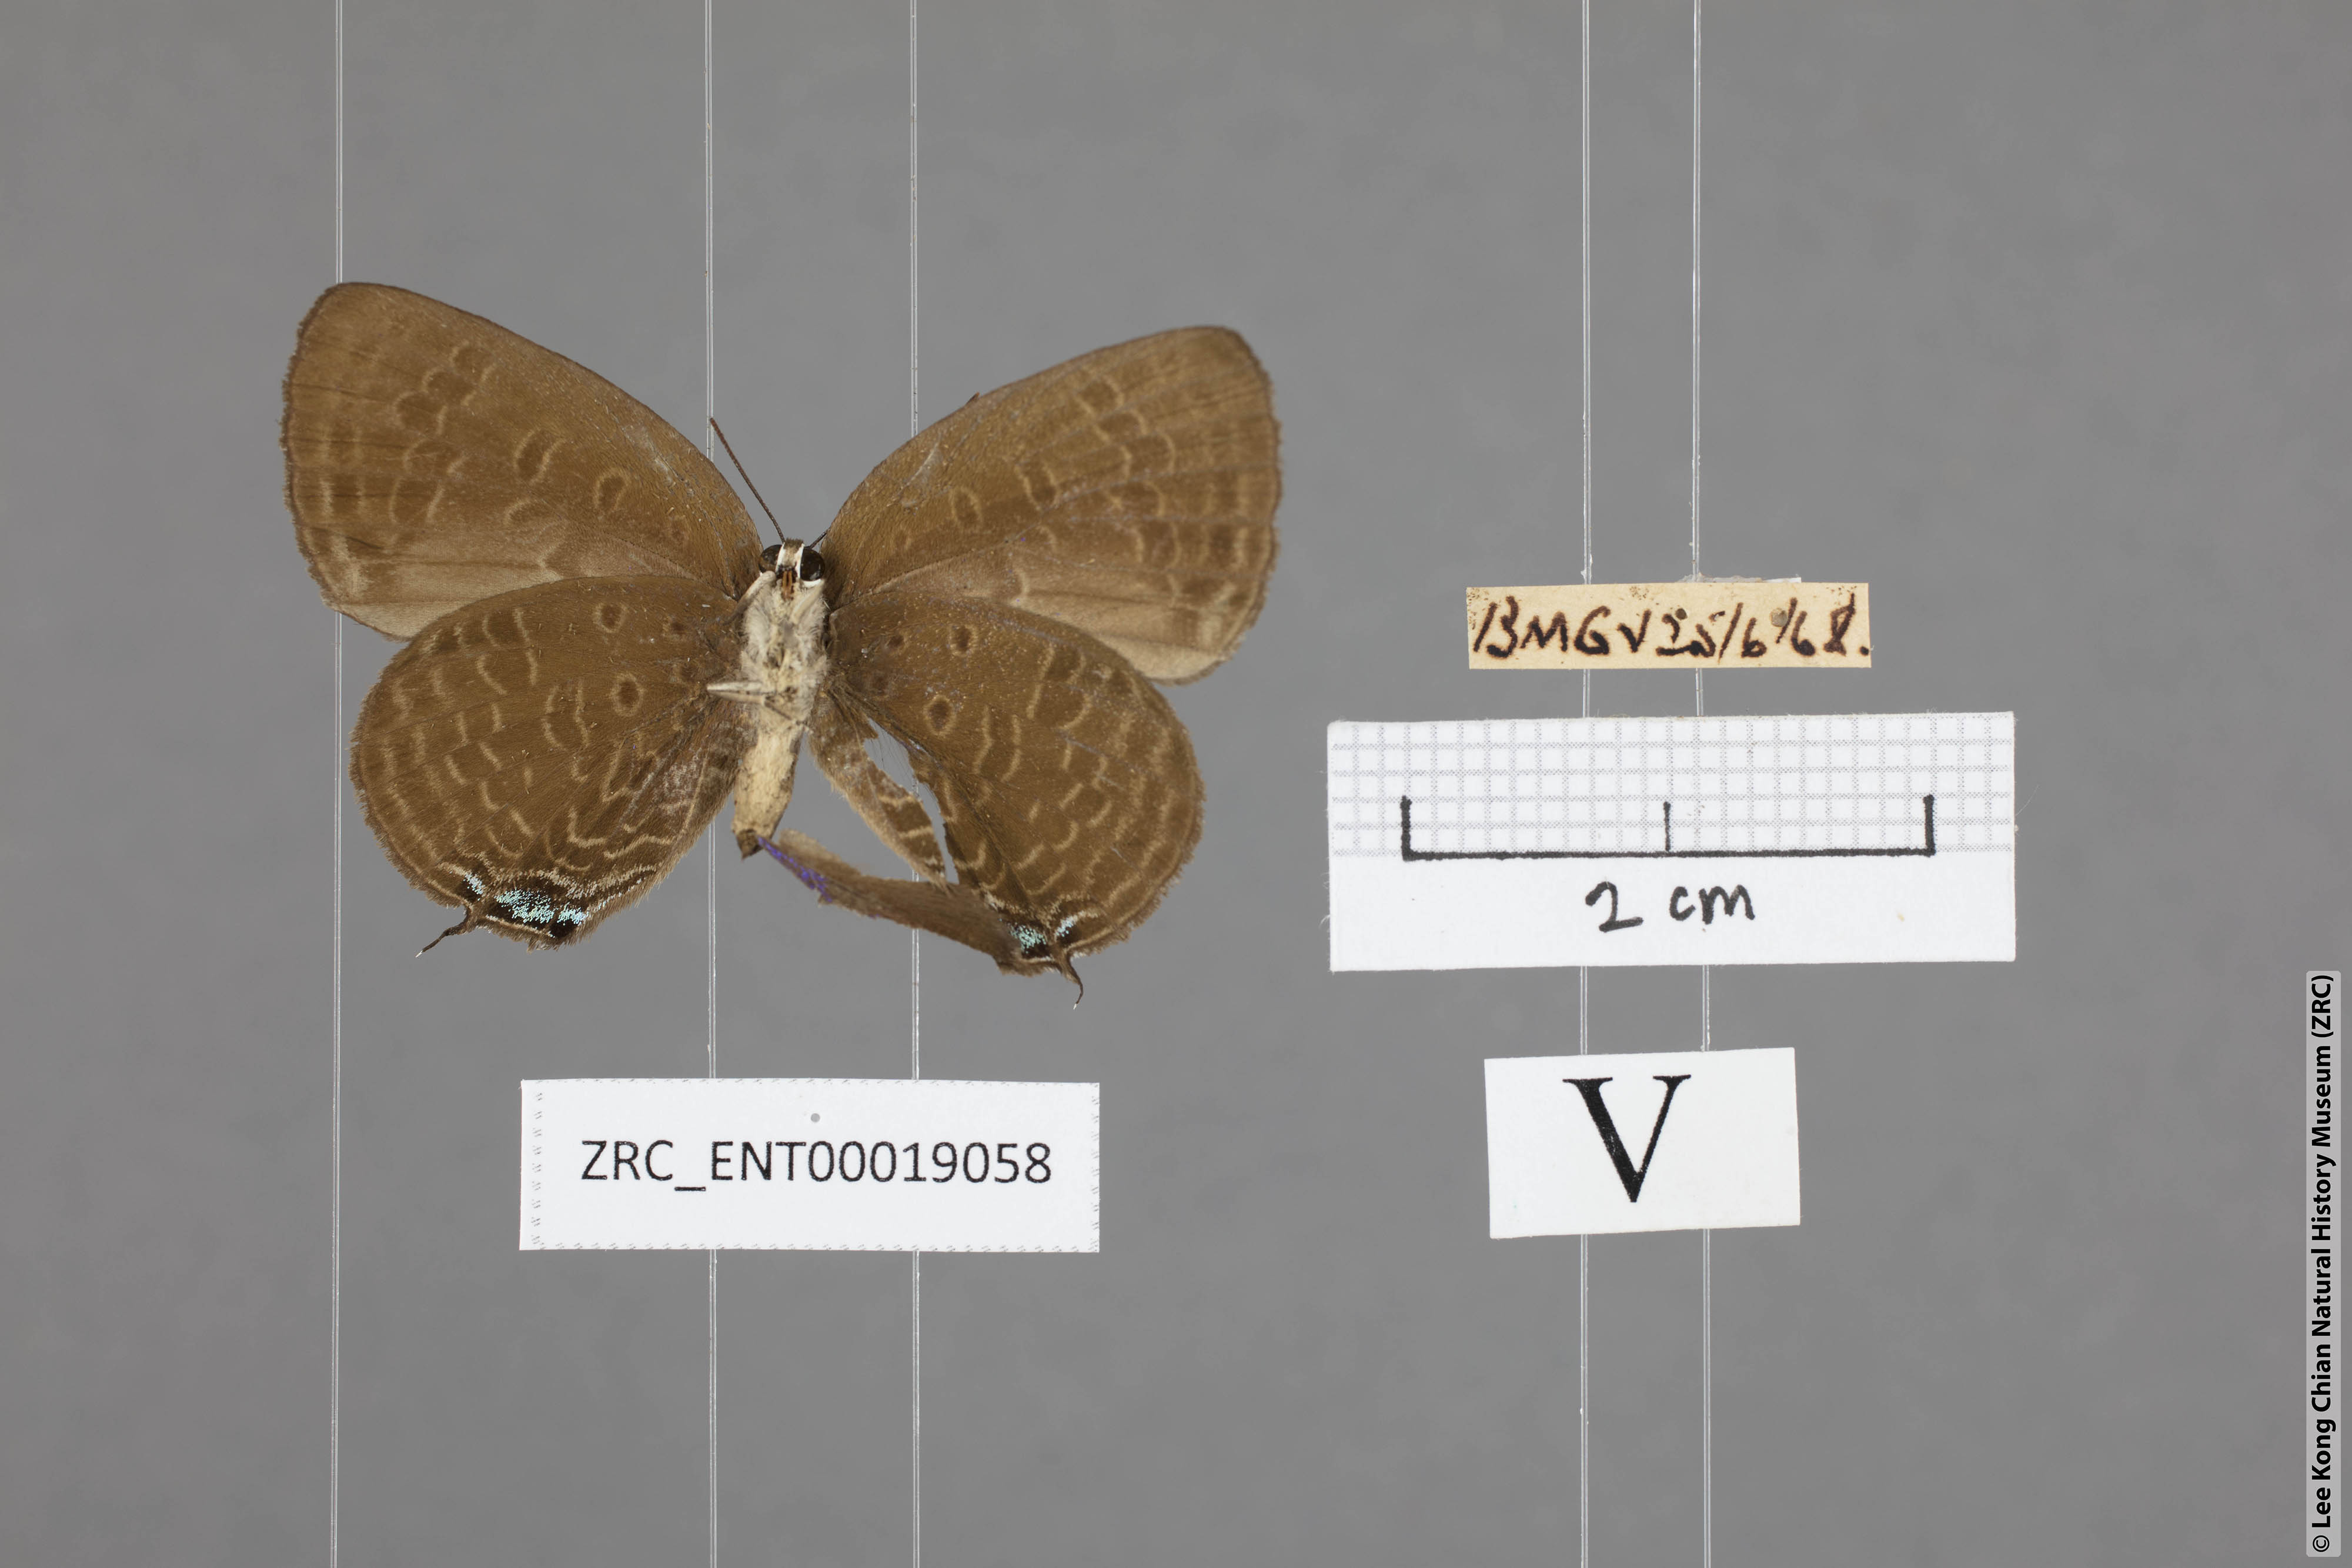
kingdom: Animalia
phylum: Arthropoda
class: Insecta
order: Lepidoptera
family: Lycaenidae
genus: Arhopala
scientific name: Arhopala agrata
